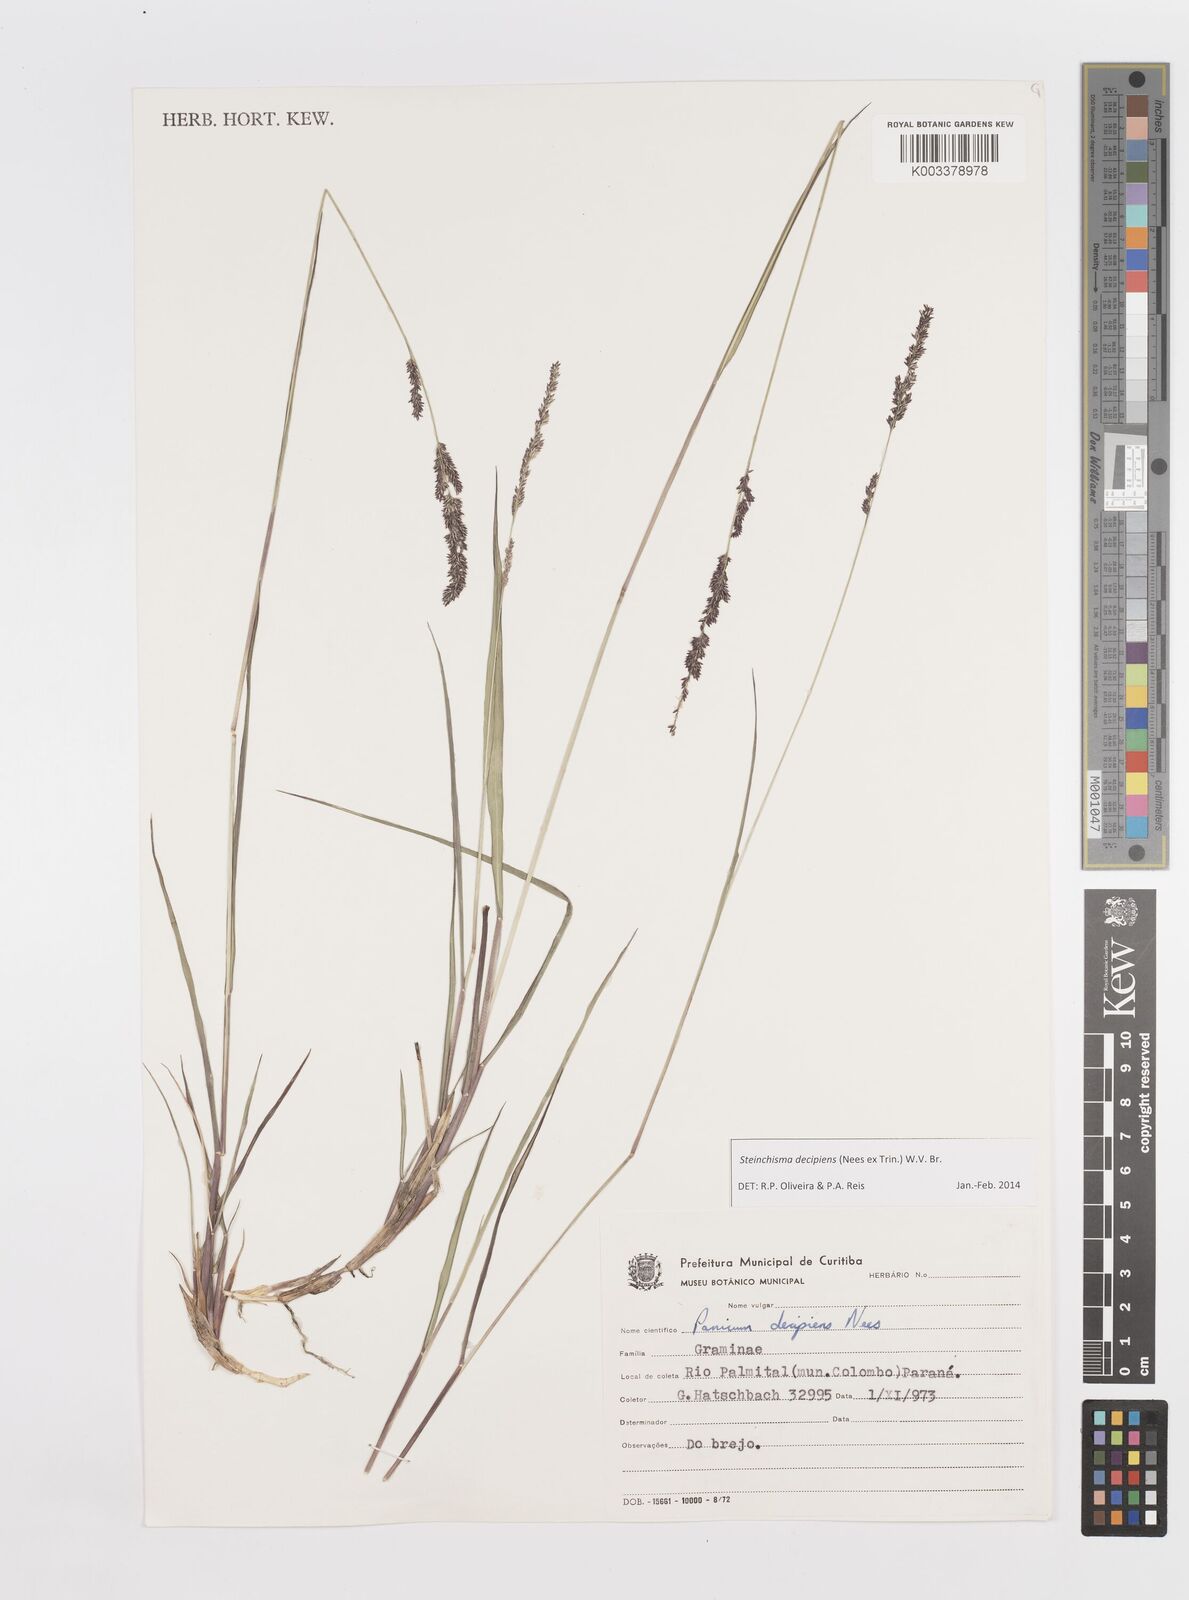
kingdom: Plantae
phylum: Tracheophyta
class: Liliopsida
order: Poales
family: Poaceae
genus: Steinchisma
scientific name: Steinchisma decipiens
